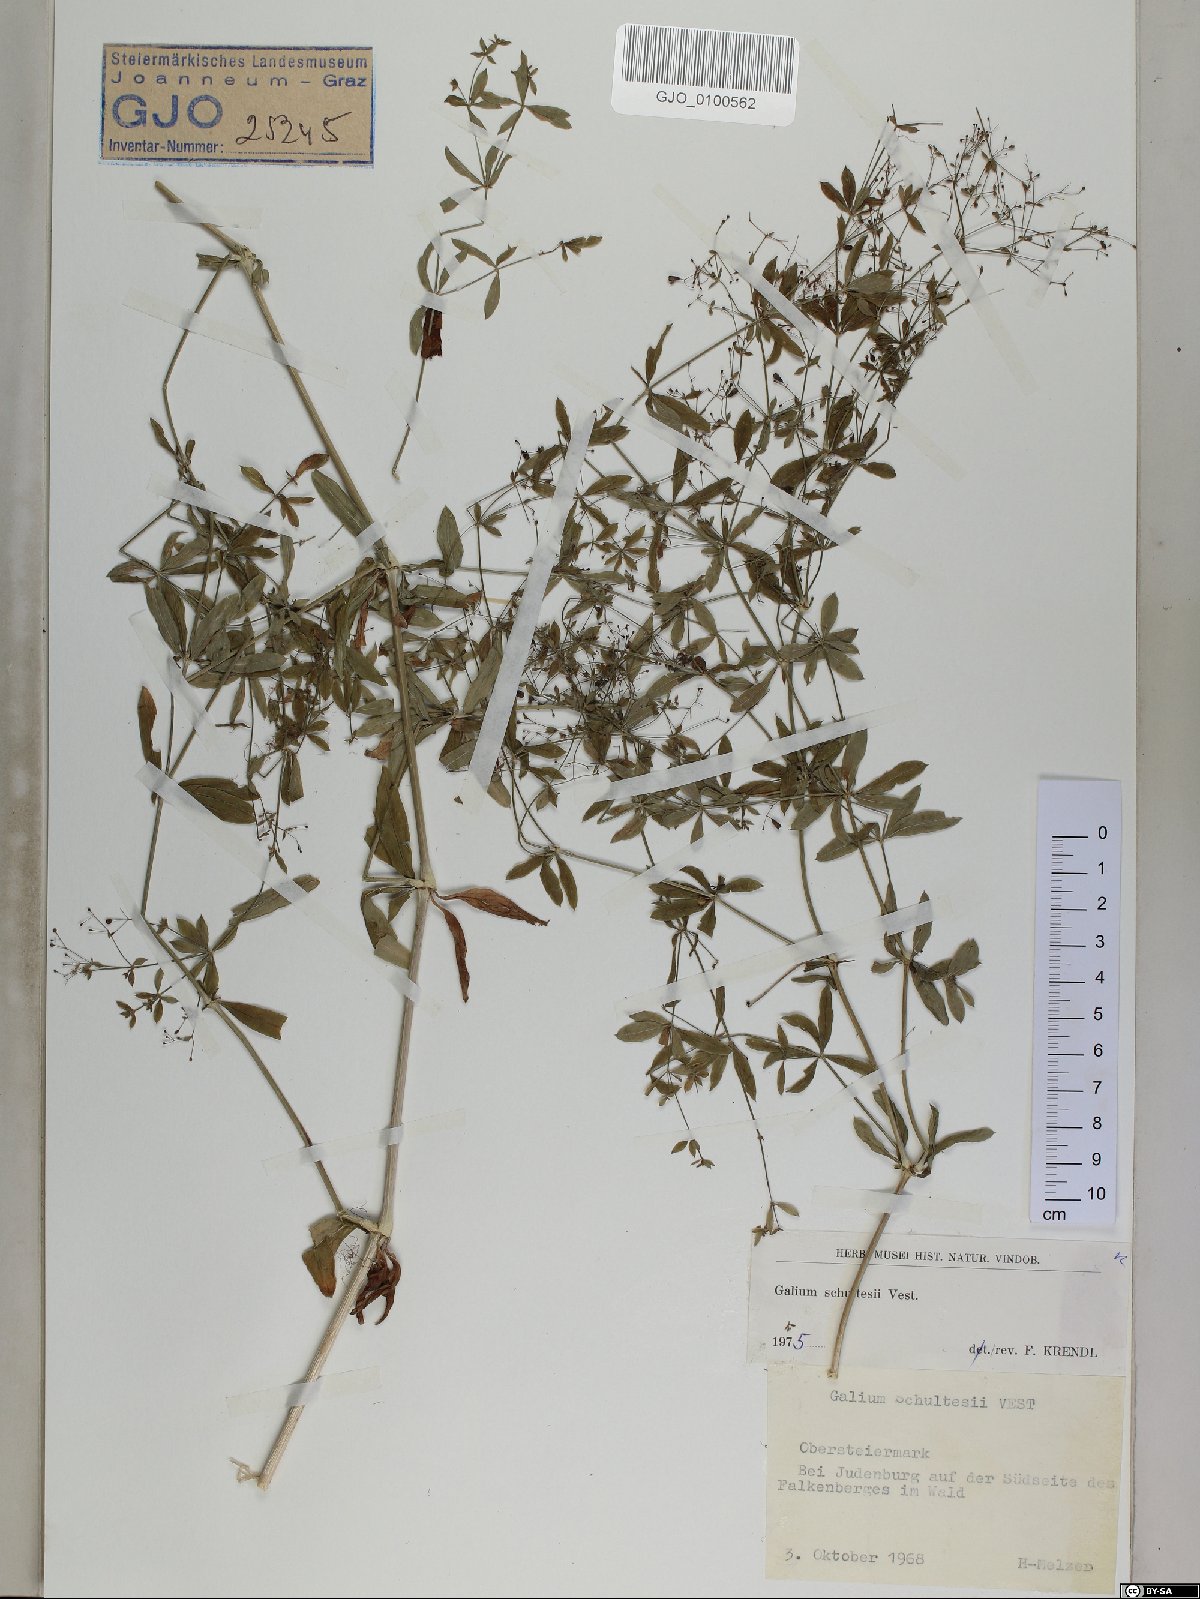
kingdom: Plantae
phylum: Tracheophyta
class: Magnoliopsida
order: Gentianales
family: Rubiaceae
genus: Galium
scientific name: Galium intermedium
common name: Bedstraw
